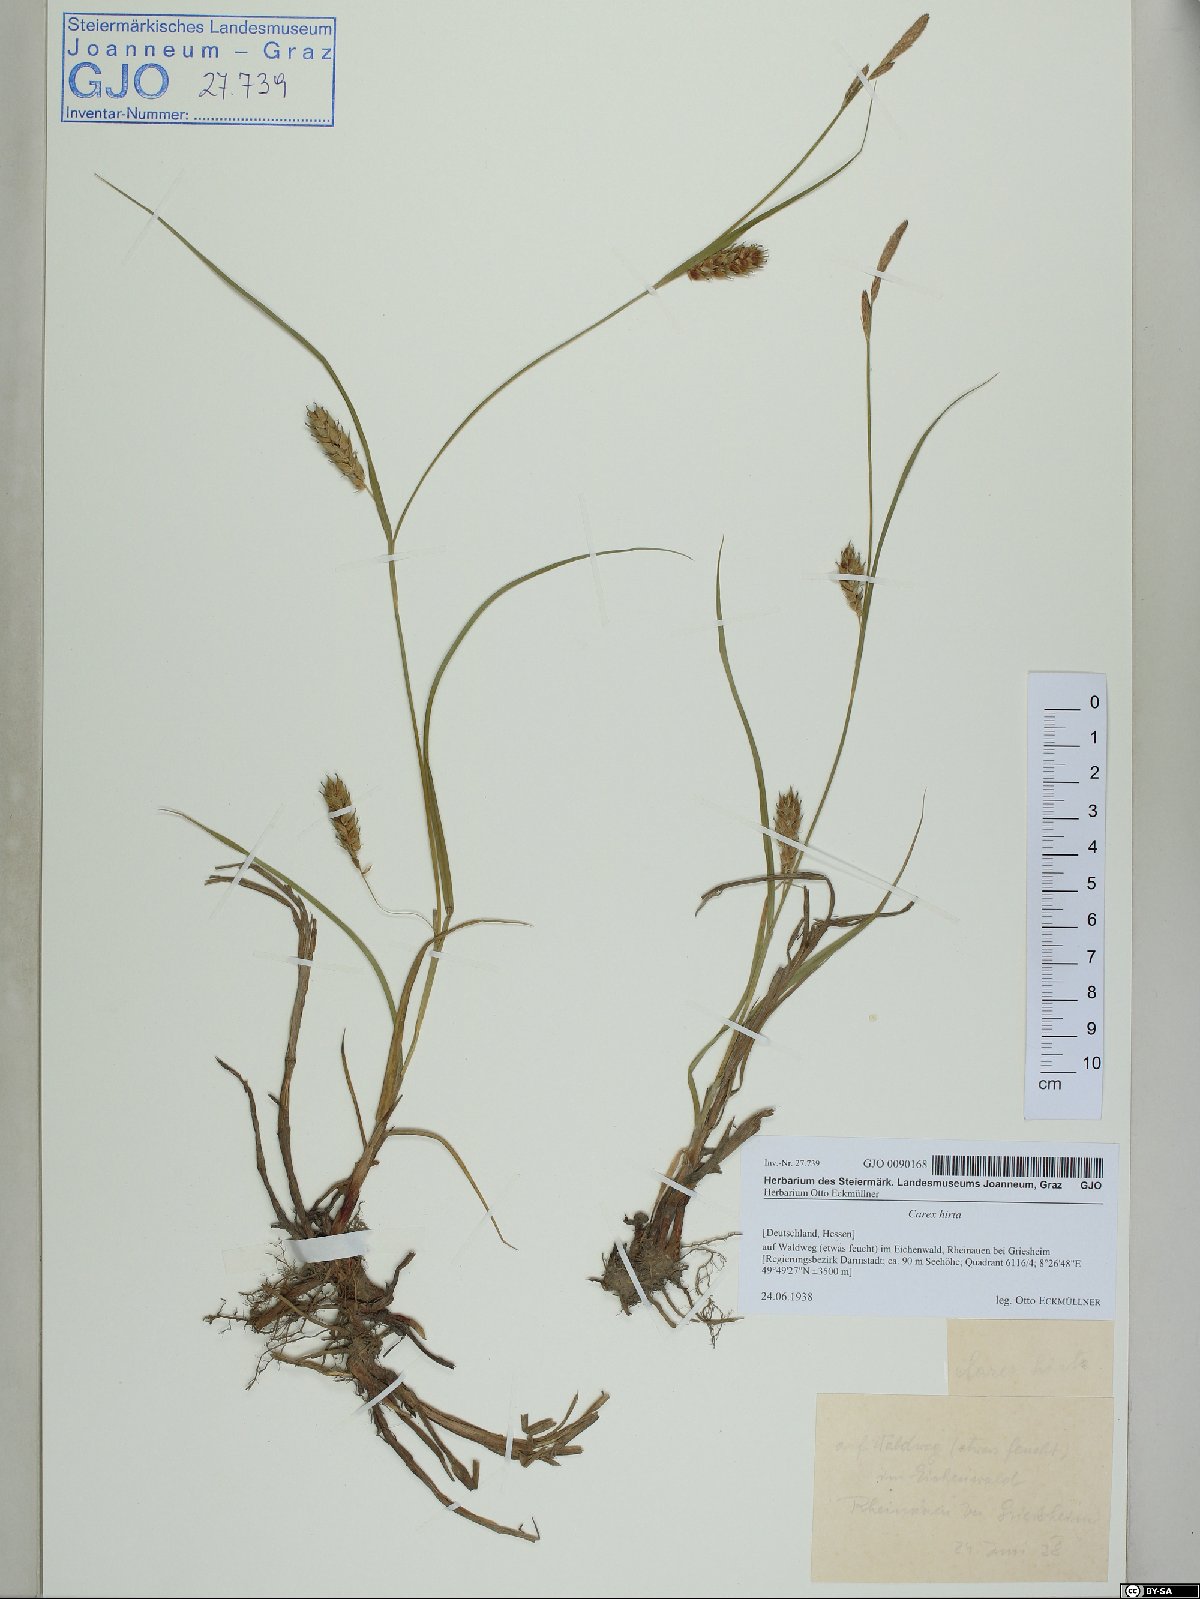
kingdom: Plantae
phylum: Tracheophyta
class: Liliopsida
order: Poales
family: Cyperaceae
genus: Carex
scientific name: Carex hirta
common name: Hairy sedge
